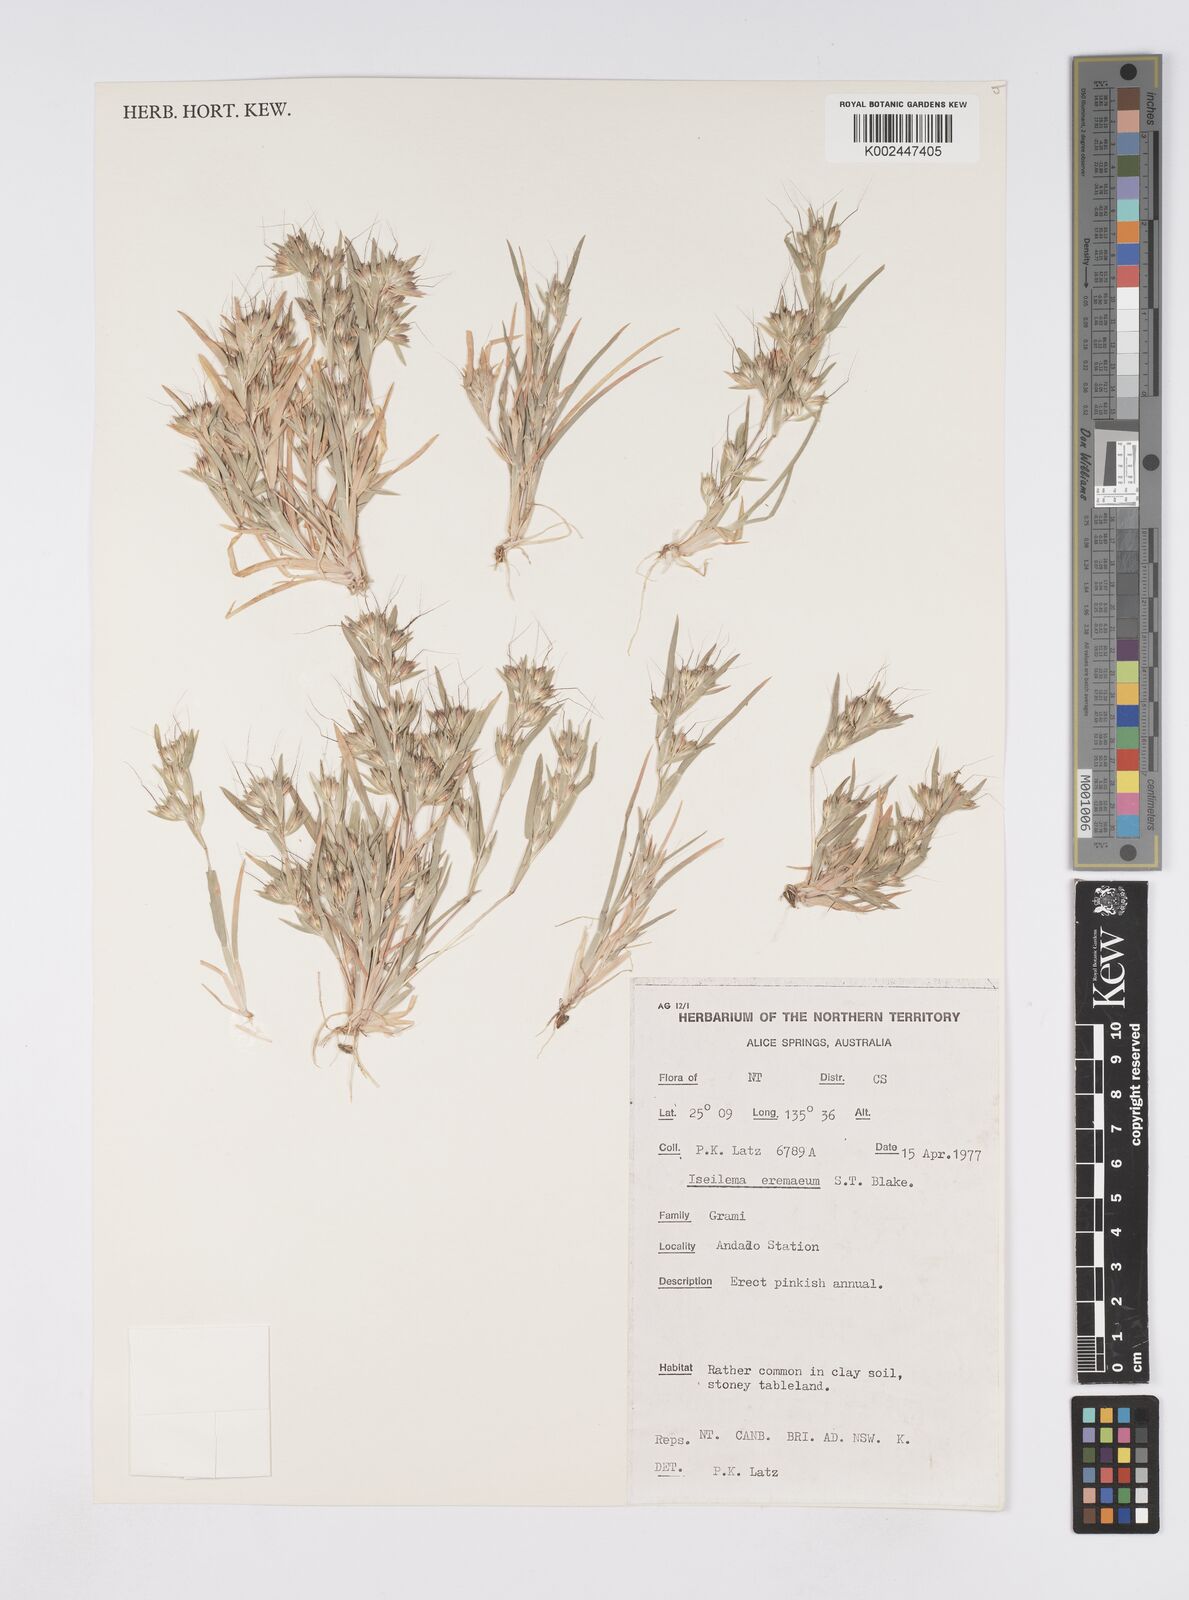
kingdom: Plantae
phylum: Tracheophyta
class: Liliopsida
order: Poales
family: Poaceae
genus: Iseilema
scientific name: Iseilema eremaeum
